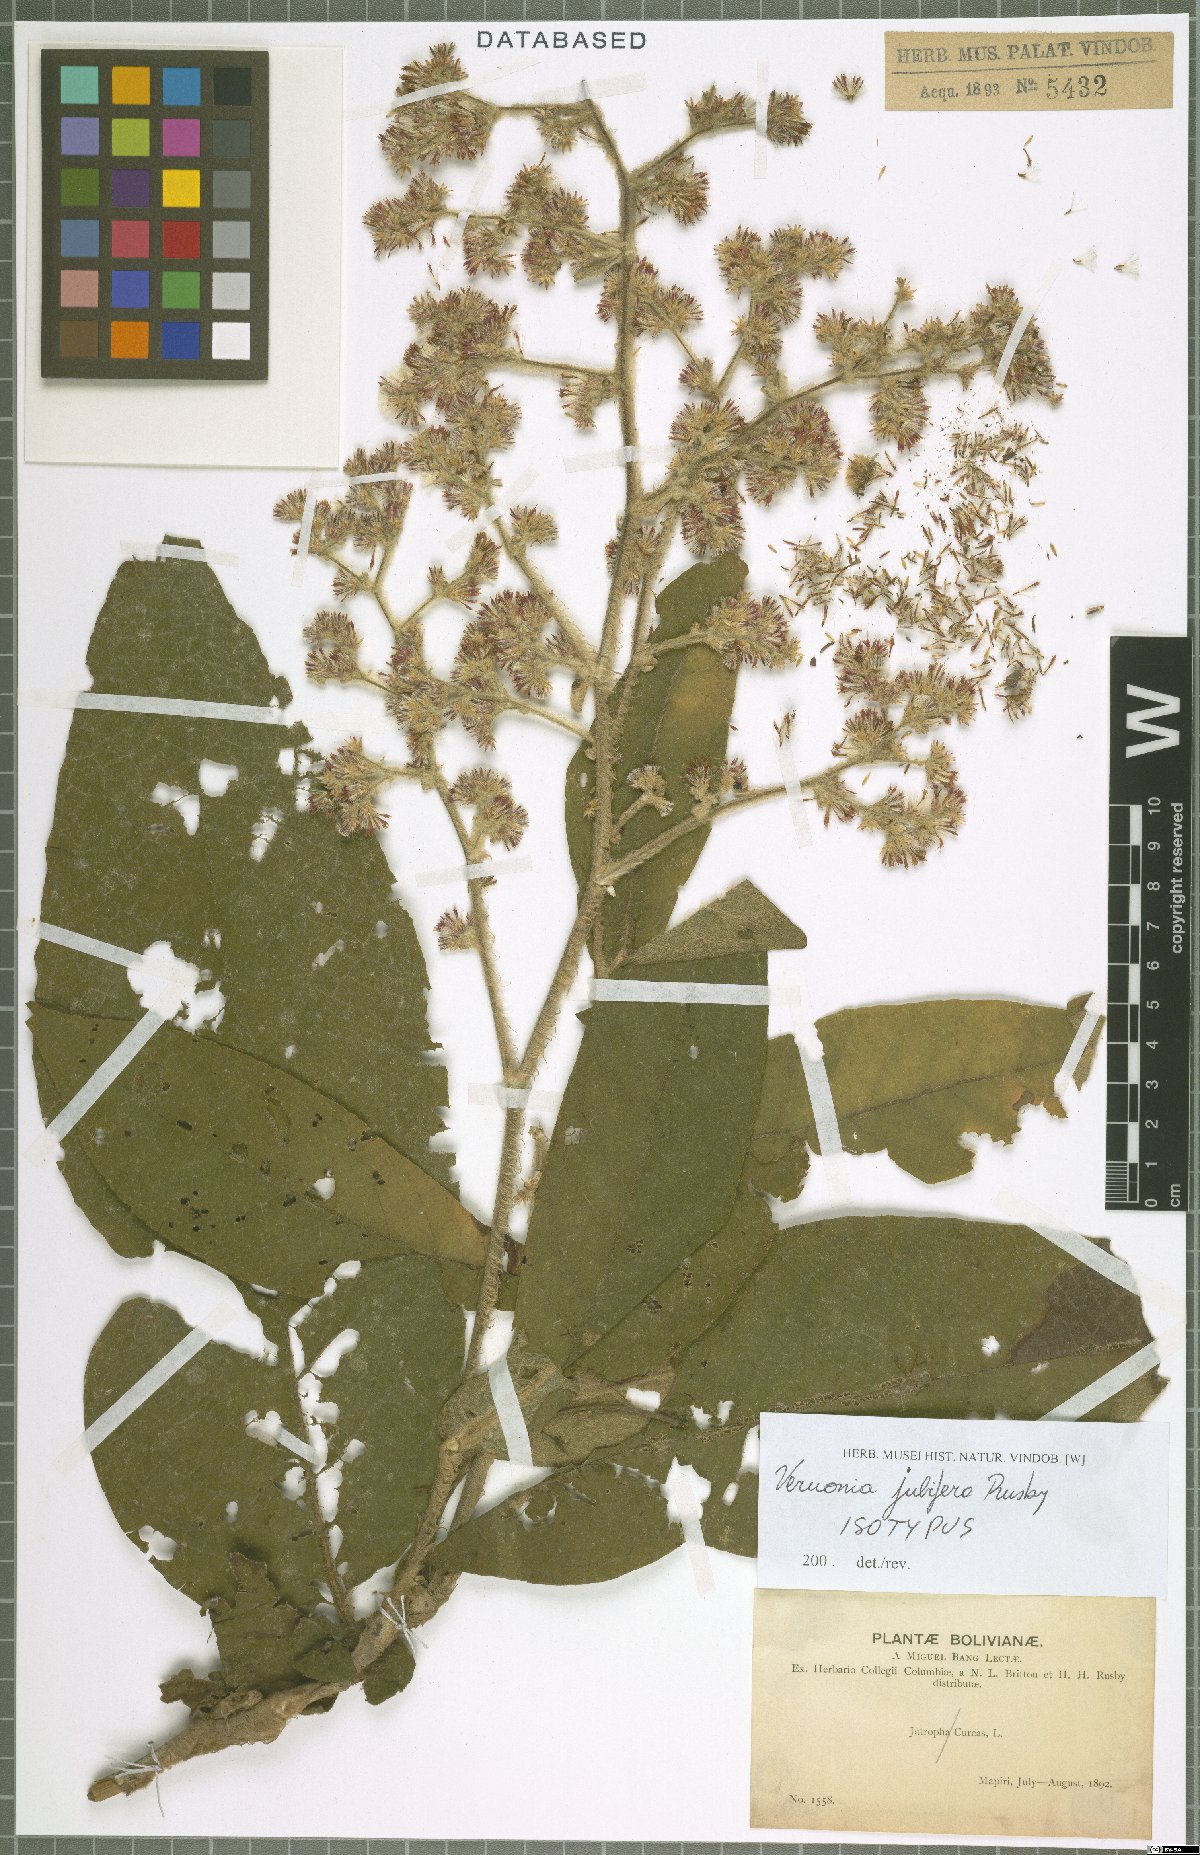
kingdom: Plantae
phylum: Tracheophyta
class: Magnoliopsida
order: Asterales
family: Asteraceae
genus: Critoniopsis
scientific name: Critoniopsis jubifera
